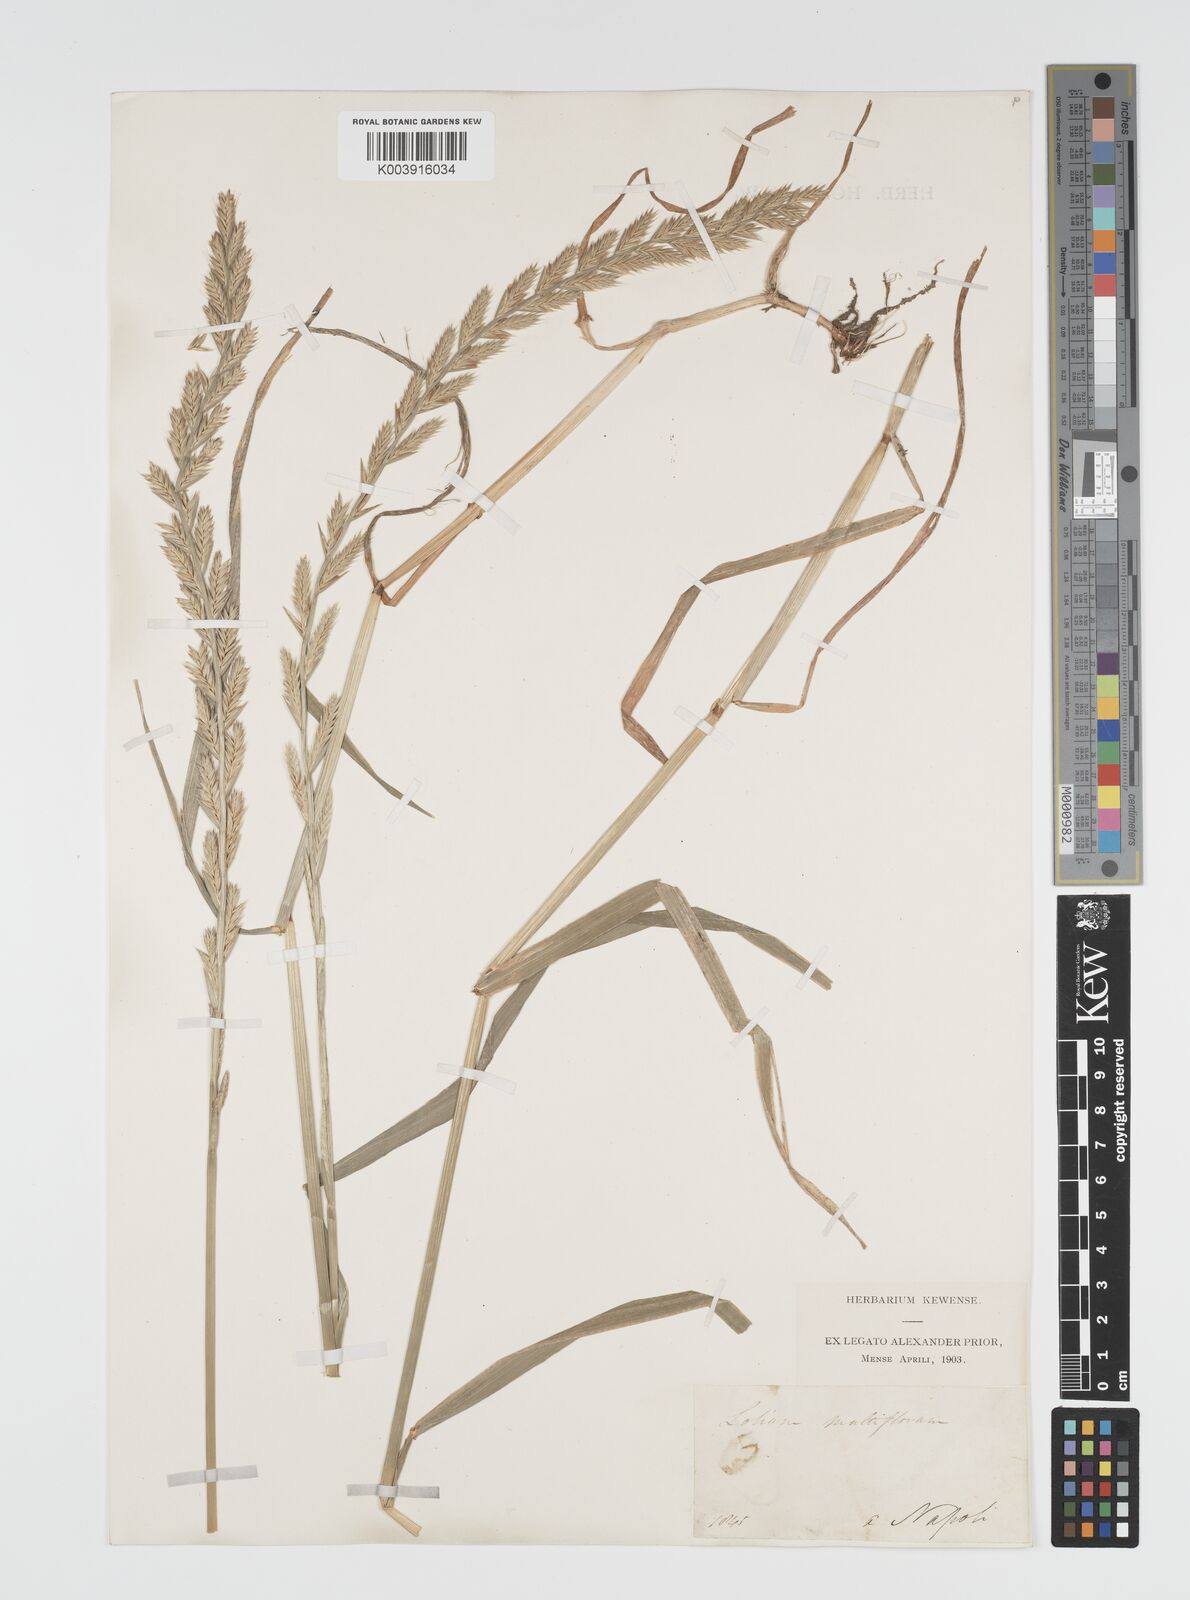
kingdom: Plantae
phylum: Tracheophyta
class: Liliopsida
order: Poales
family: Poaceae
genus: Lolium
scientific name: Lolium multiflorum
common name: Annual ryegrass
